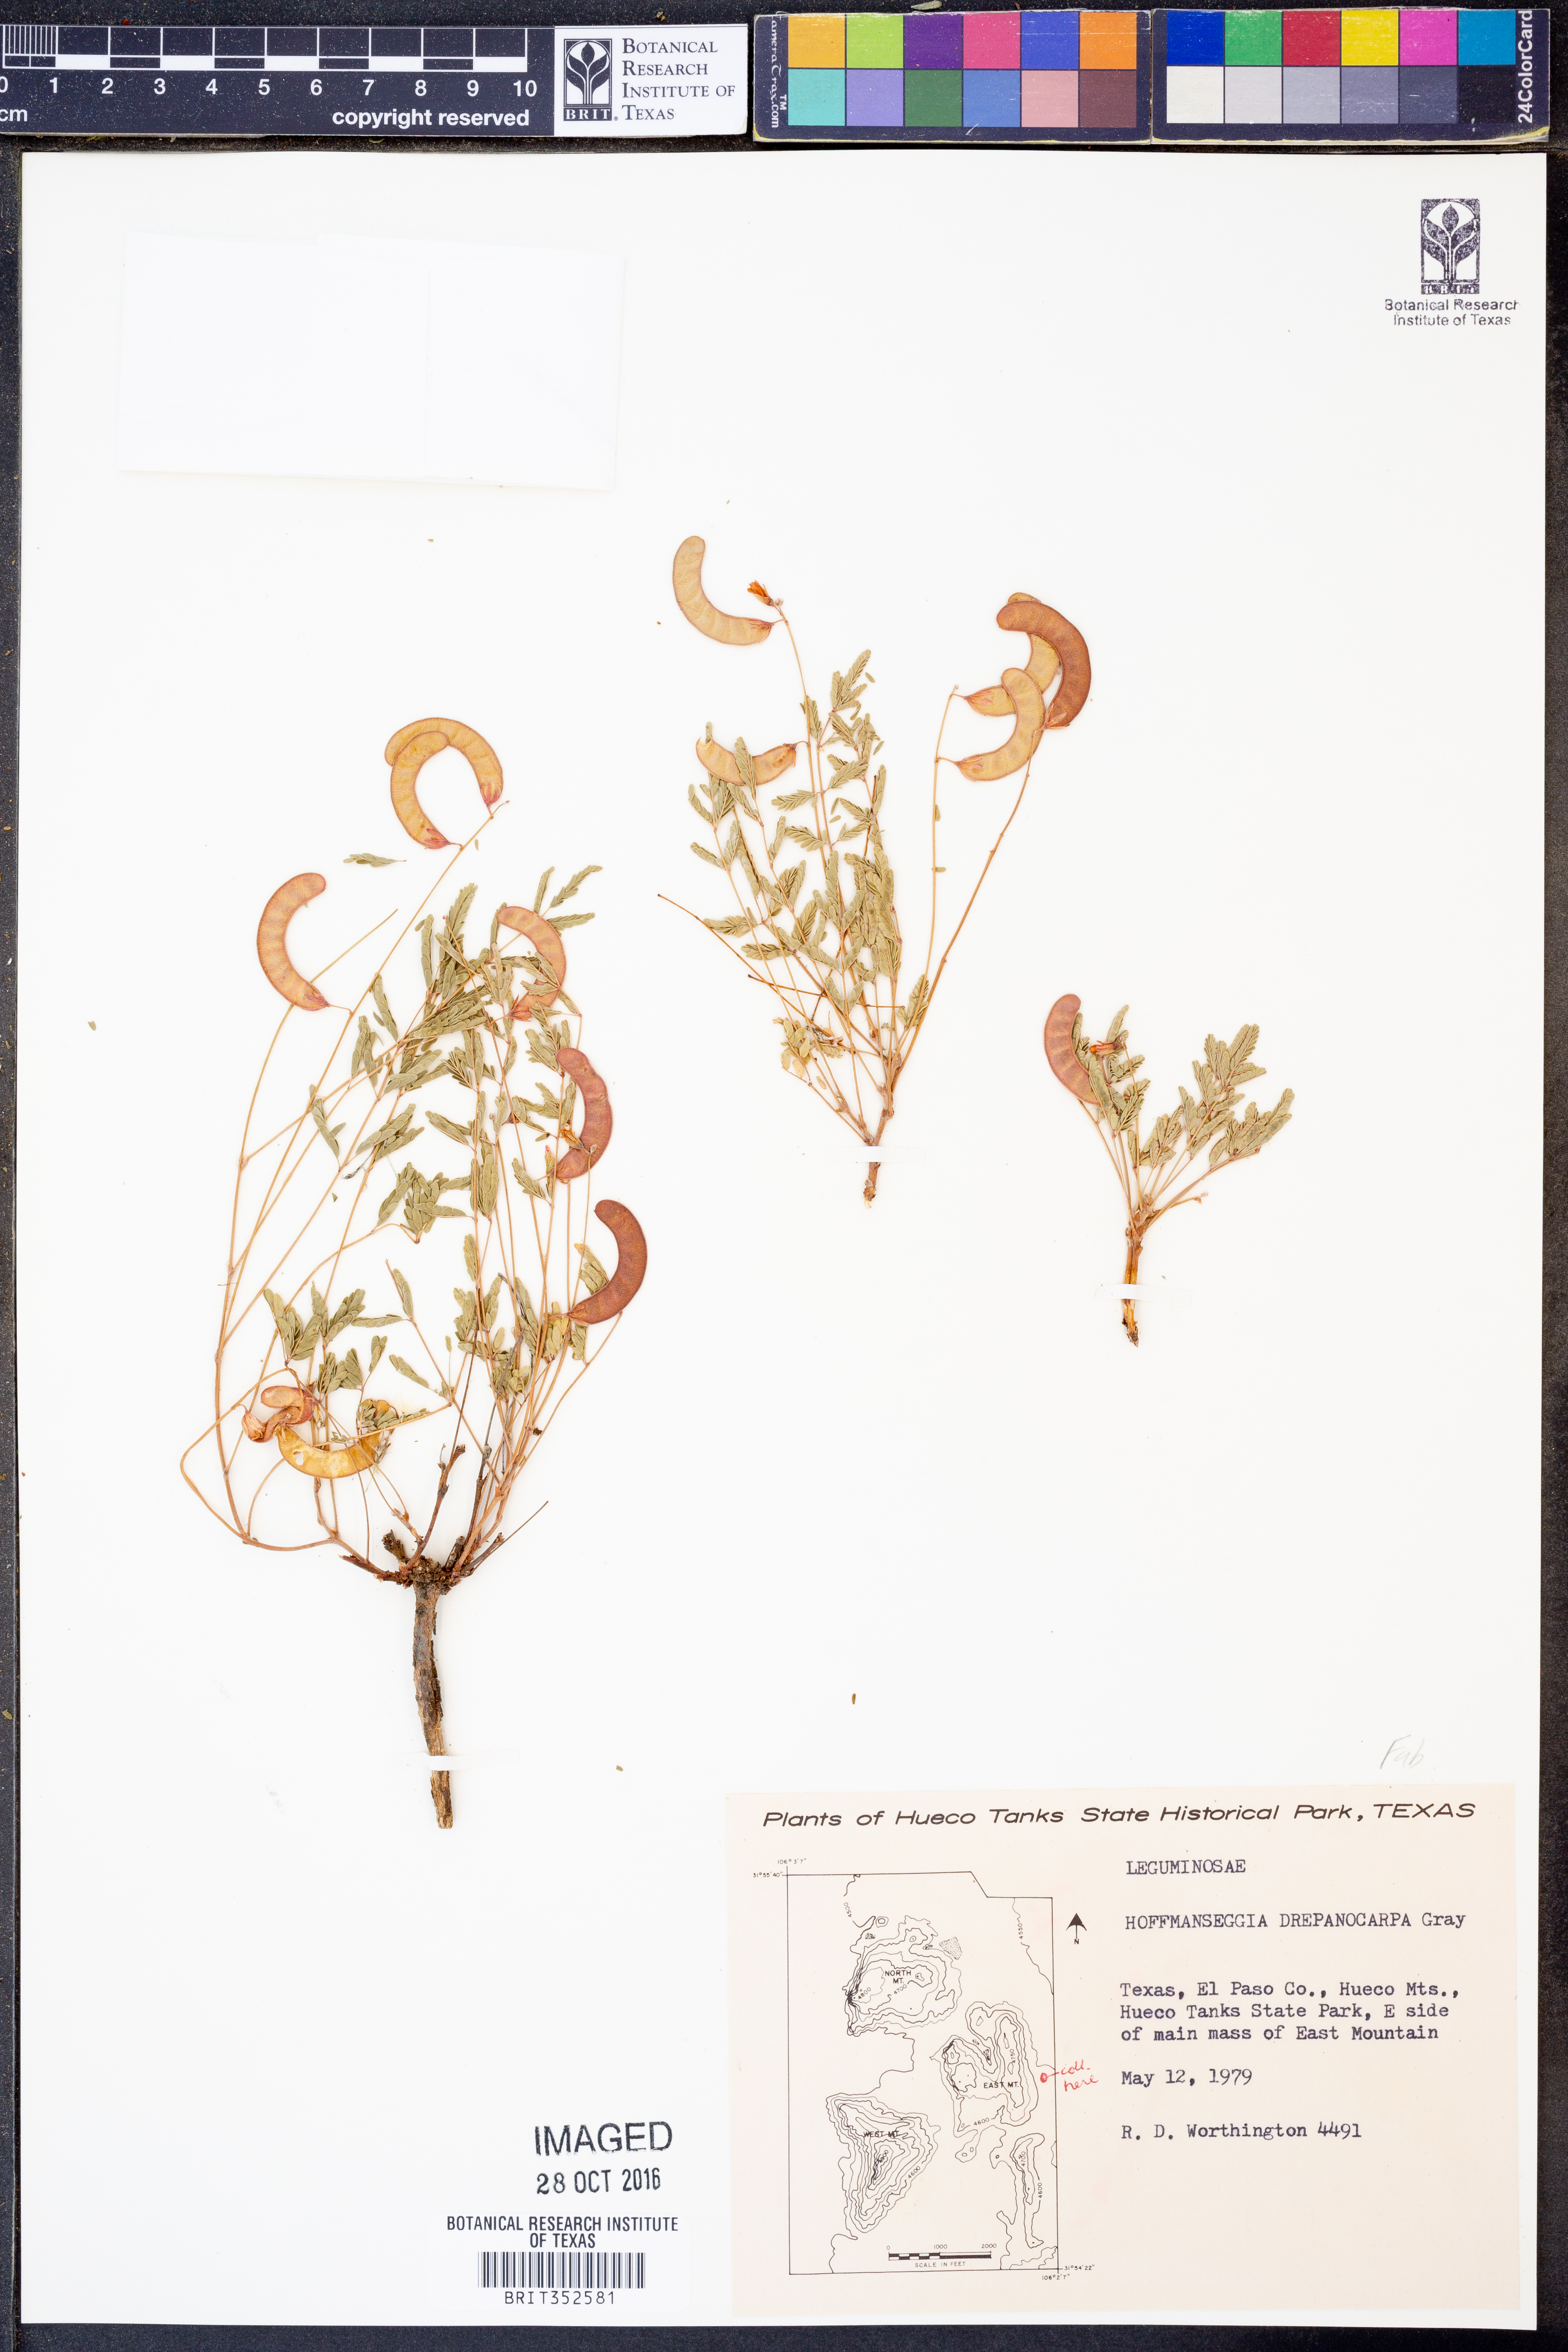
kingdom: Plantae
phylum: Tracheophyta
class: Magnoliopsida
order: Fabales
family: Fabaceae
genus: Hoffmannseggia
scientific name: Hoffmannseggia drepanocarpa
